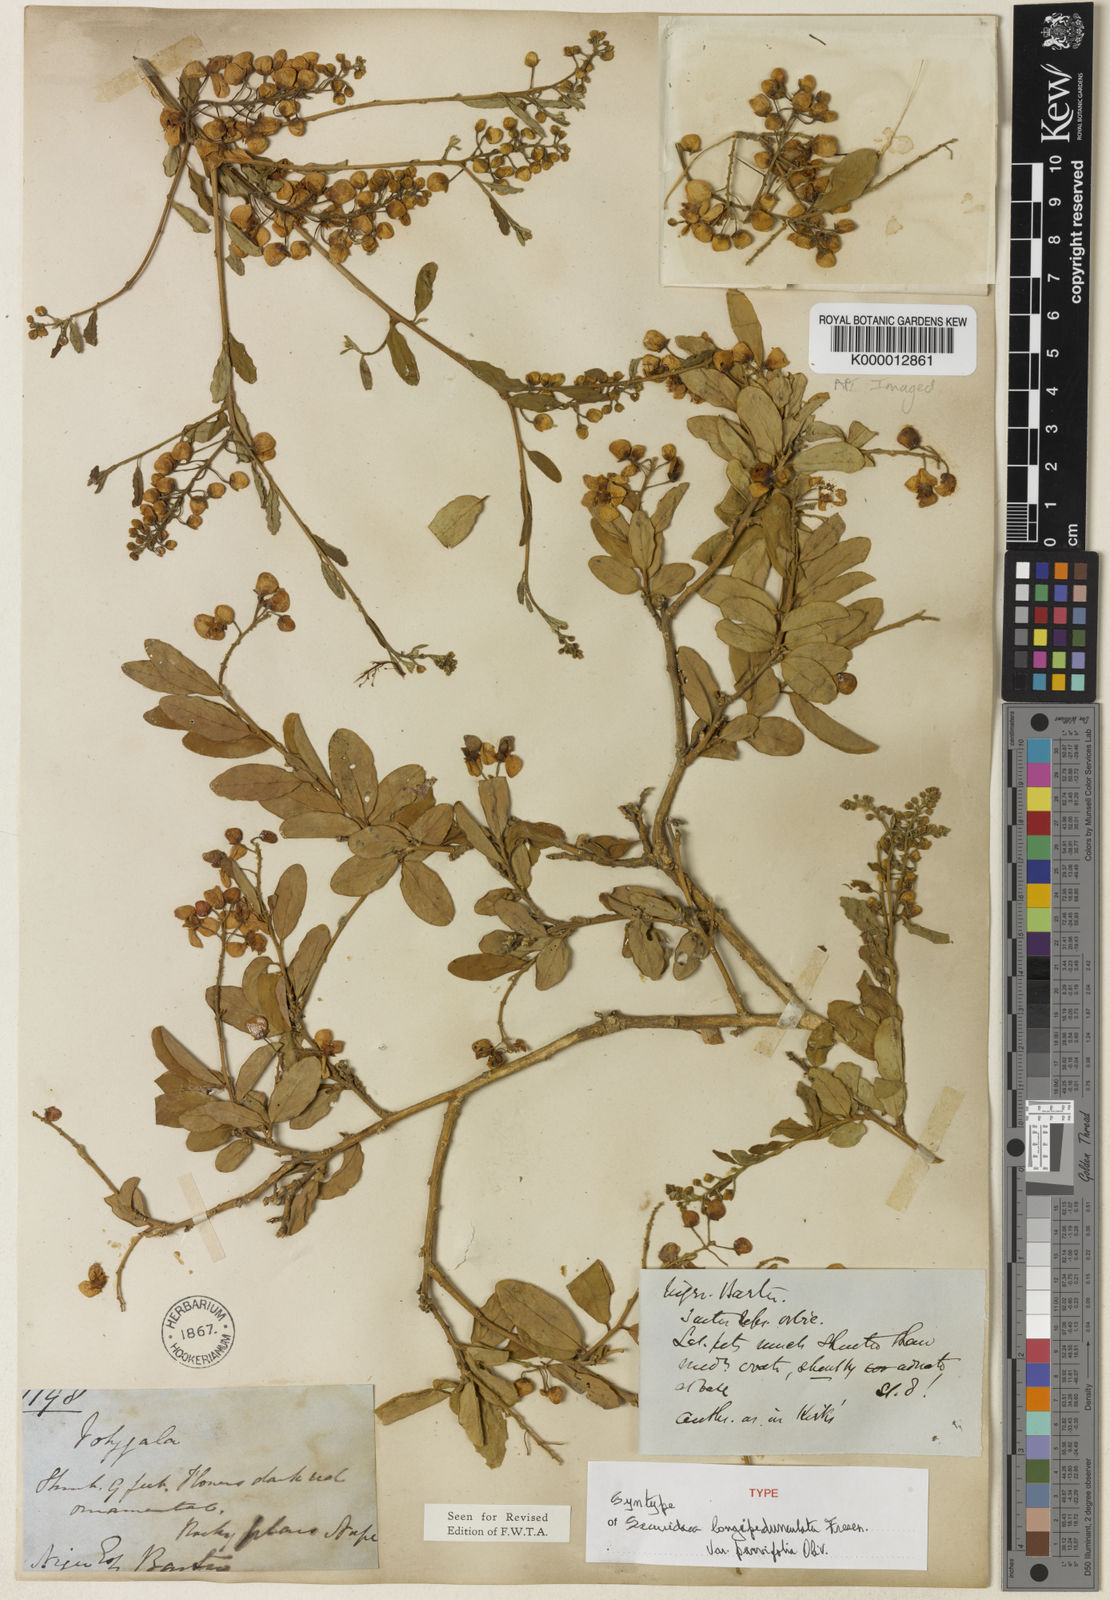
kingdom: Plantae
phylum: Tracheophyta
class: Magnoliopsida
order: Fabales
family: Polygalaceae
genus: Securidaca
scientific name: Securidaca
